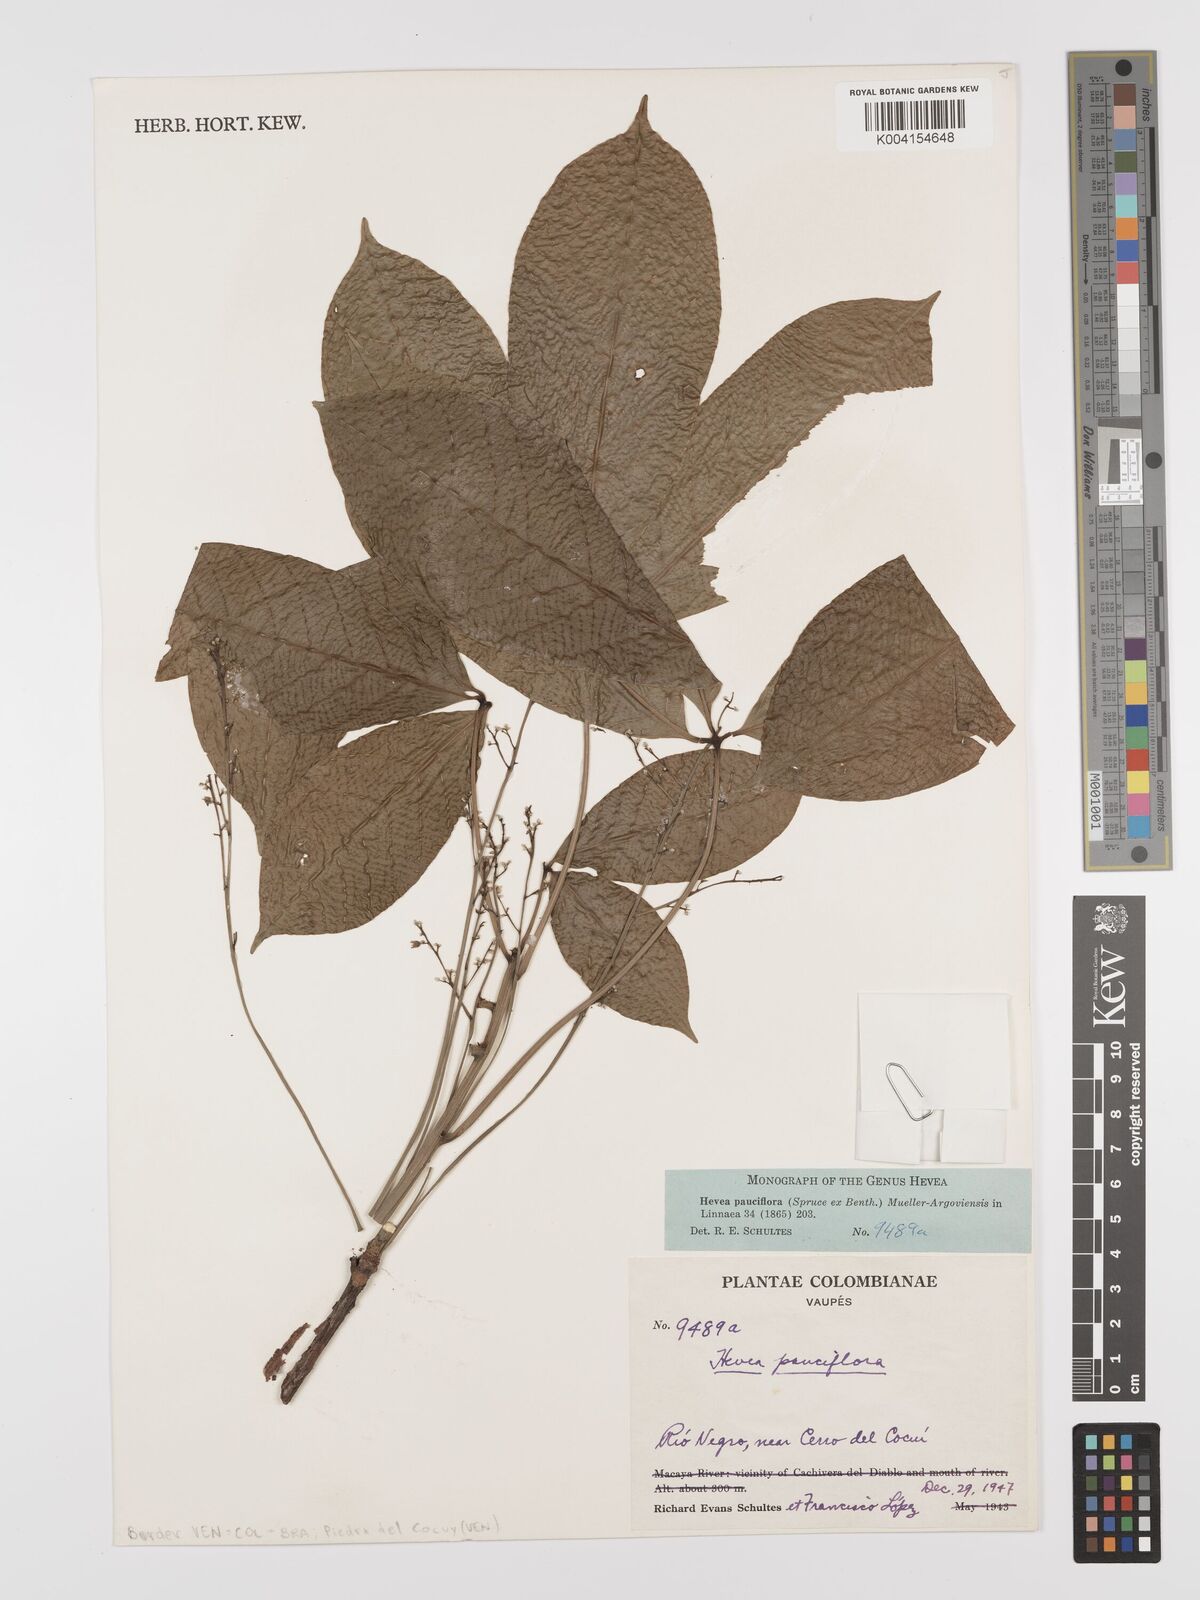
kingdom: Plantae
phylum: Tracheophyta
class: Magnoliopsida
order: Malpighiales
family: Euphorbiaceae
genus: Hevea
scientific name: Hevea pauciflora
